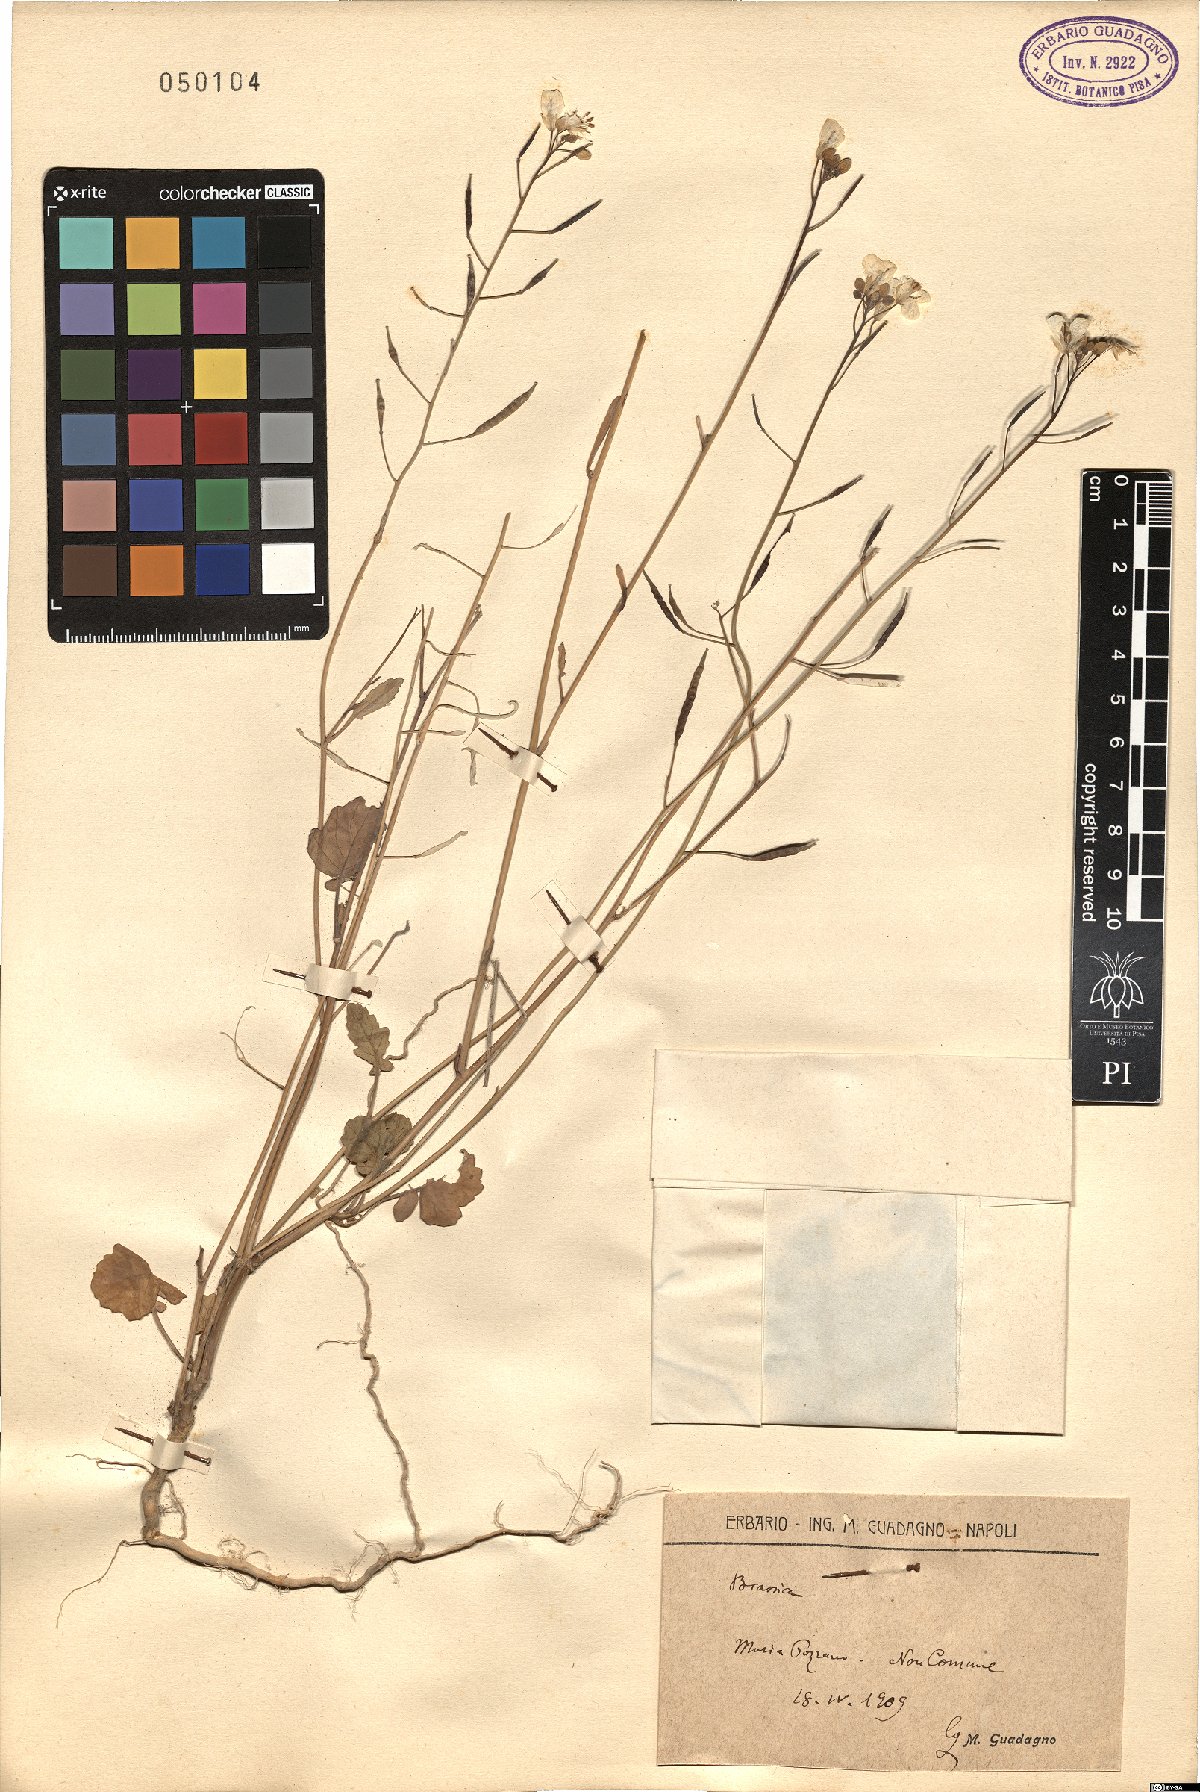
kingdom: Plantae
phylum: Tracheophyta
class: Magnoliopsida
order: Brassicales
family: Brassicaceae
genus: Brassica
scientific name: Brassica
